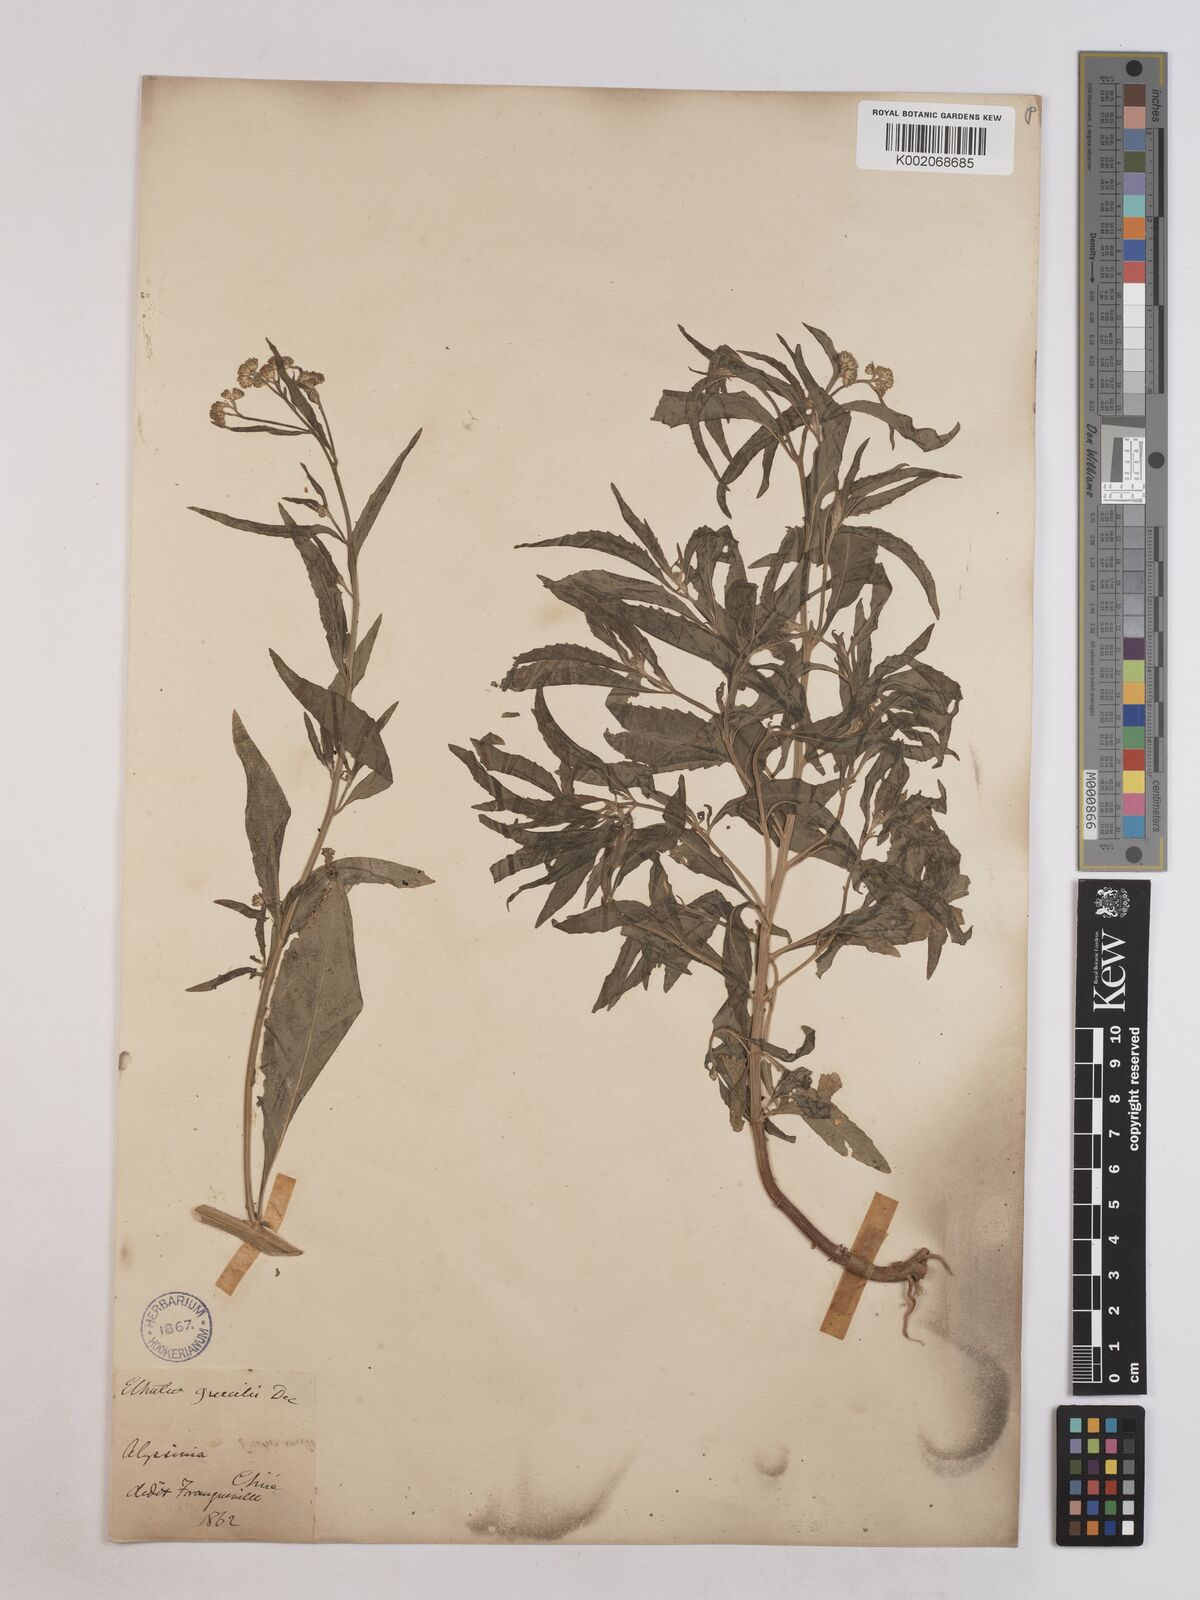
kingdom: Plantae
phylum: Tracheophyta
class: Magnoliopsida
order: Asterales
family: Asteraceae
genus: Ethulia
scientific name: Ethulia gracilis
